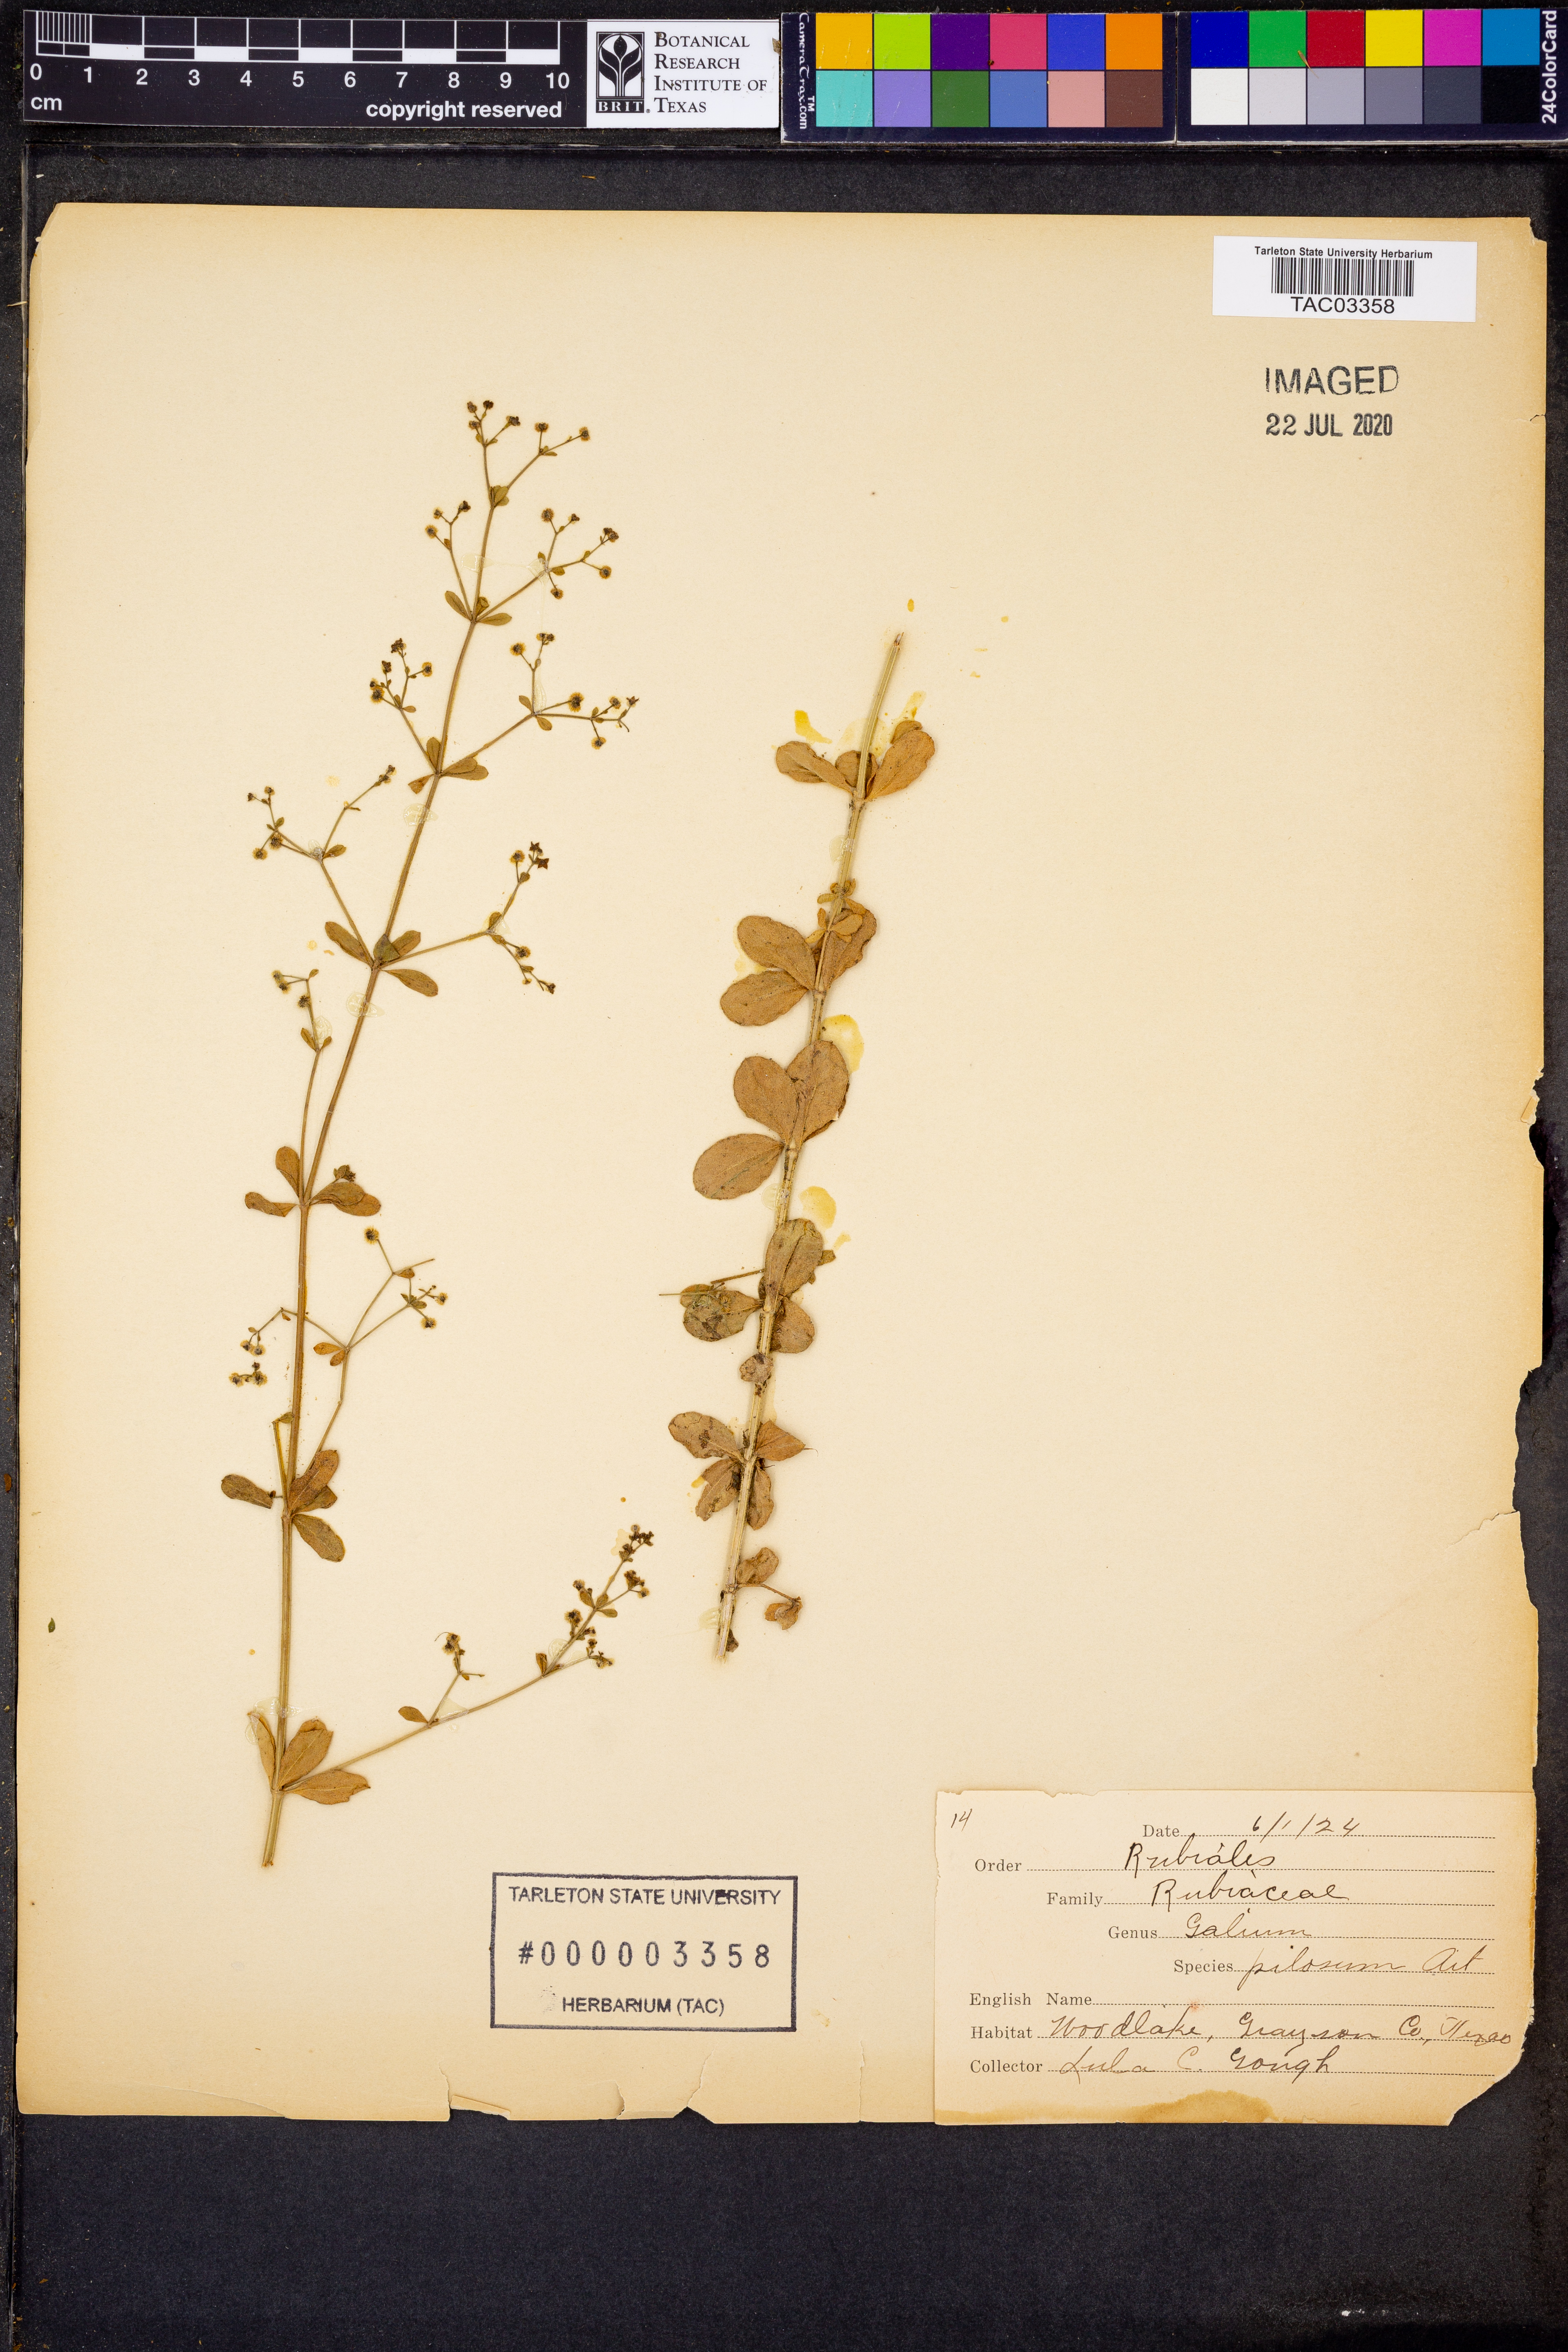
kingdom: Plantae
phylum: Tracheophyta
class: Magnoliopsida
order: Gentianales
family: Rubiaceae
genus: Galium
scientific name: Galium pilosum
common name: Hairy bedstraw
